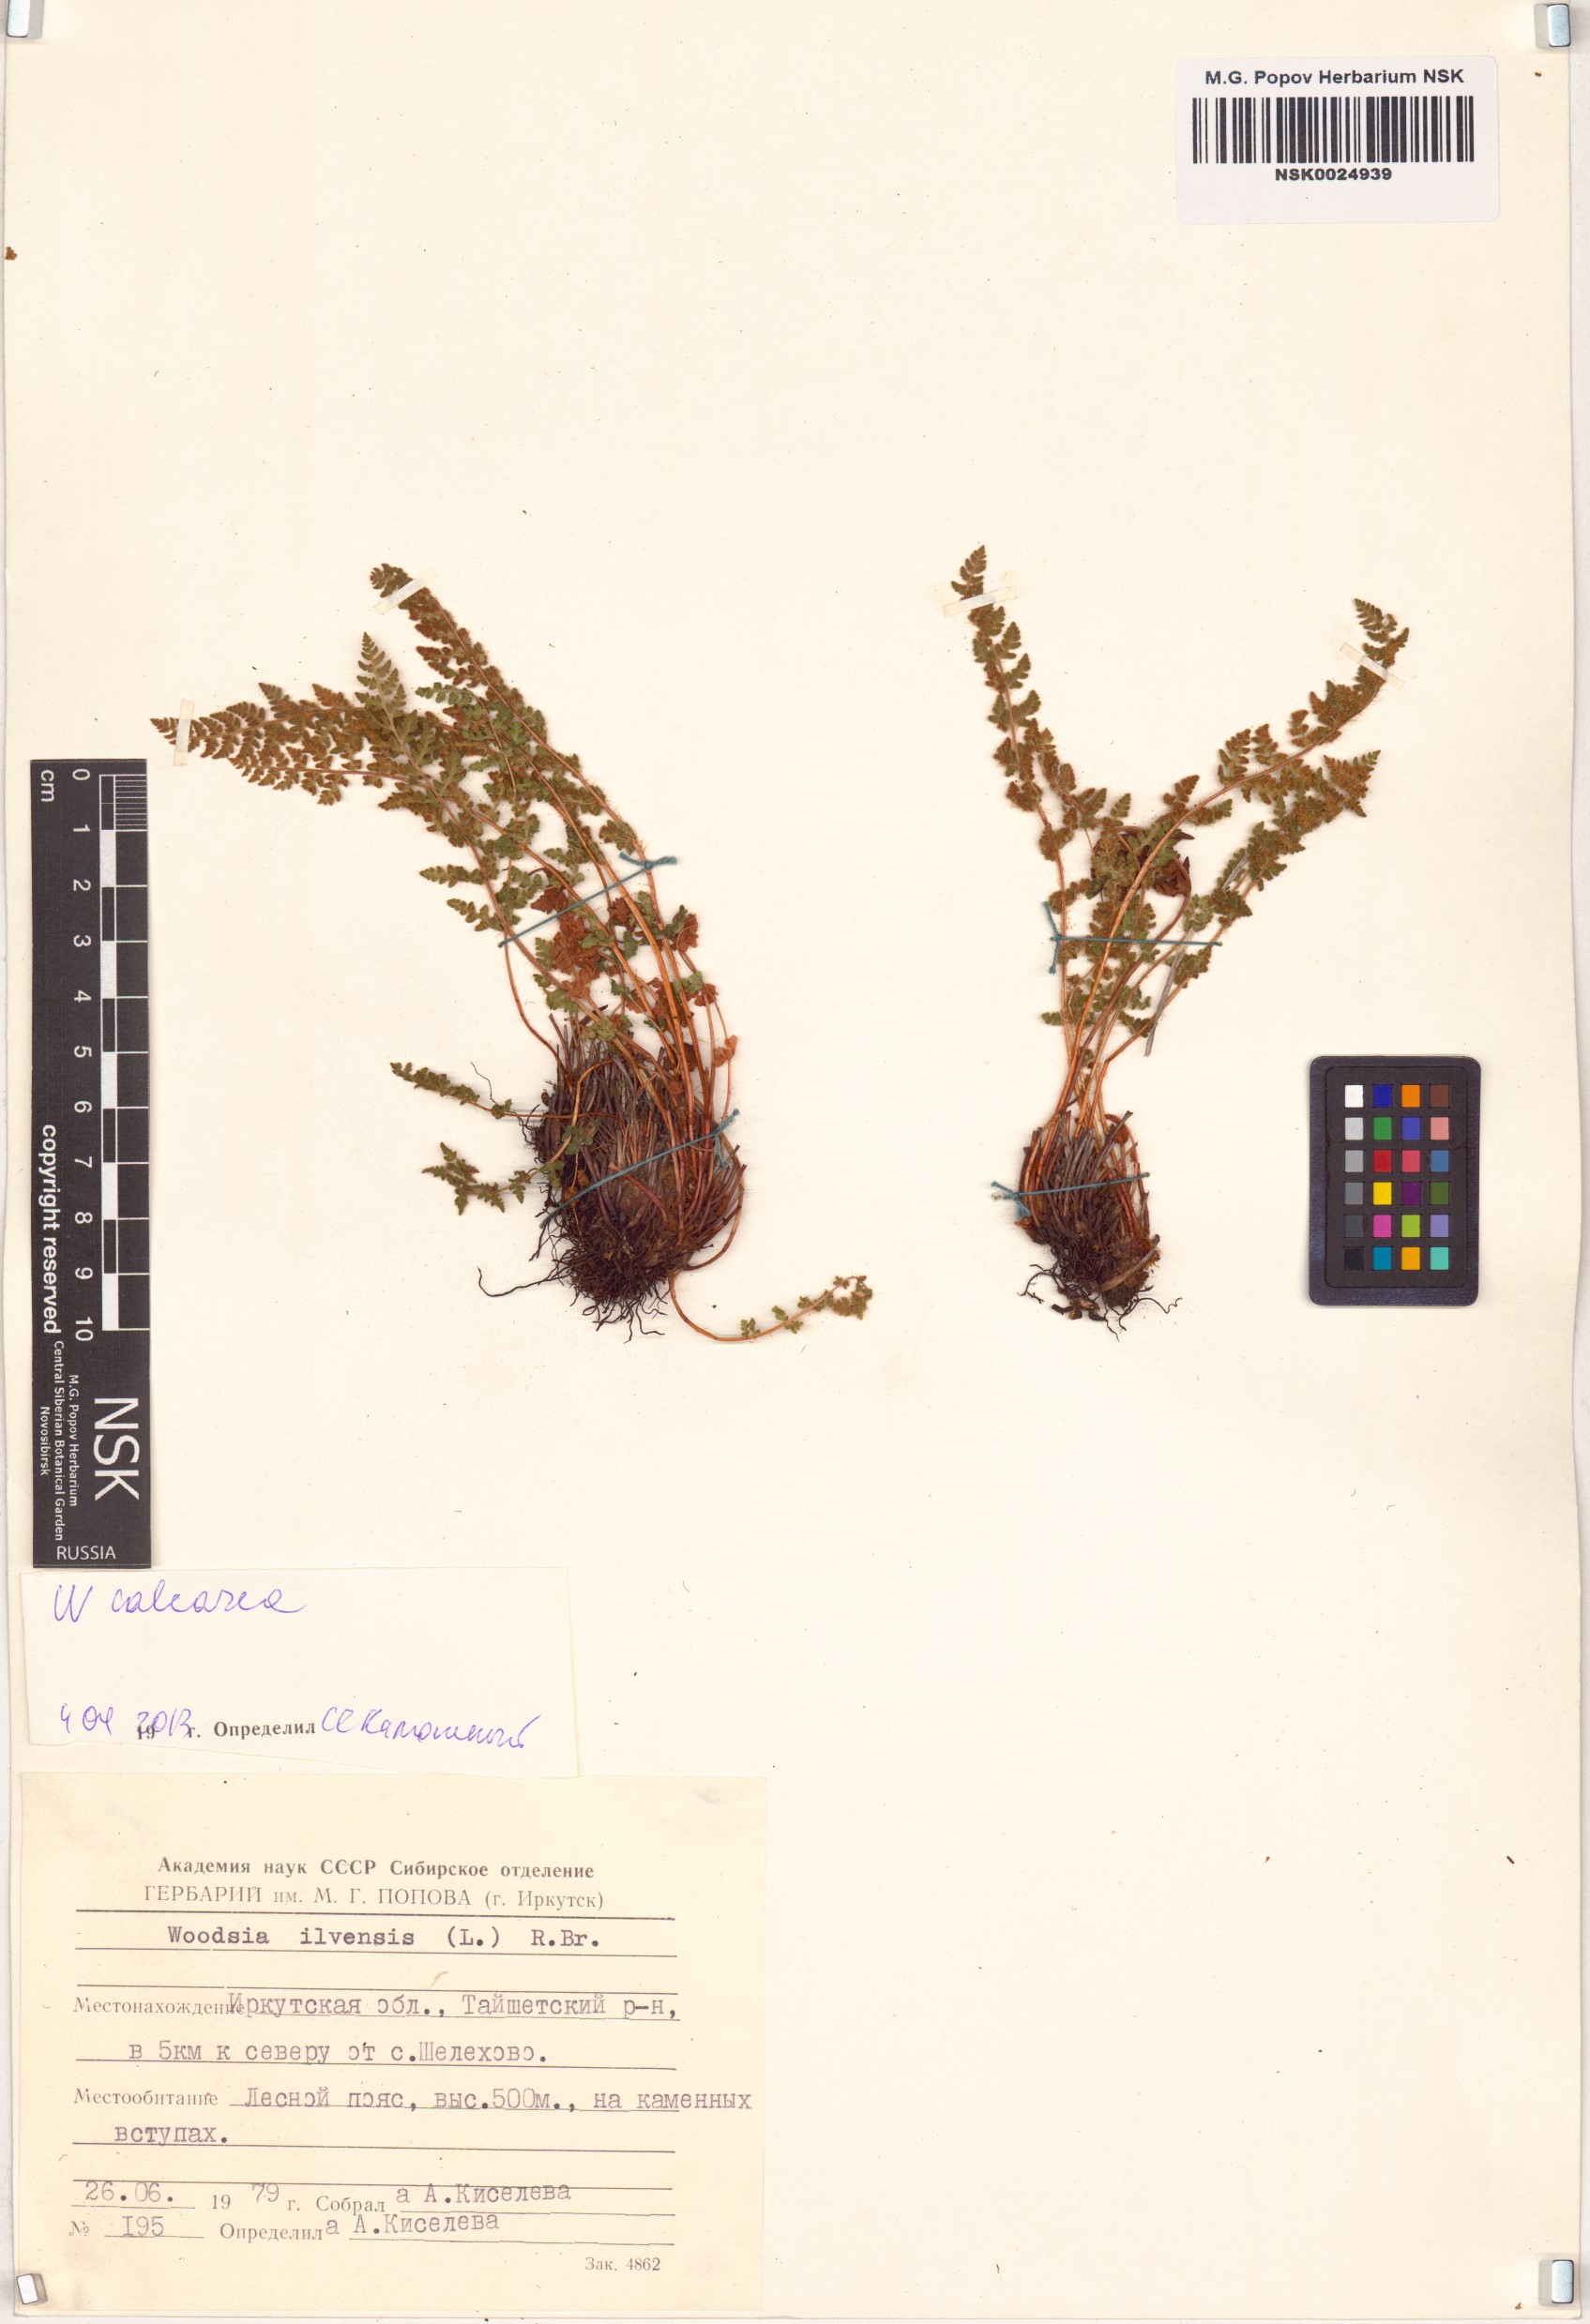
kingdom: Plantae
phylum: Tracheophyta
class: Polypodiopsida
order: Polypodiales
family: Woodsiaceae
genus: Woodsia
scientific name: Woodsia calcarea
